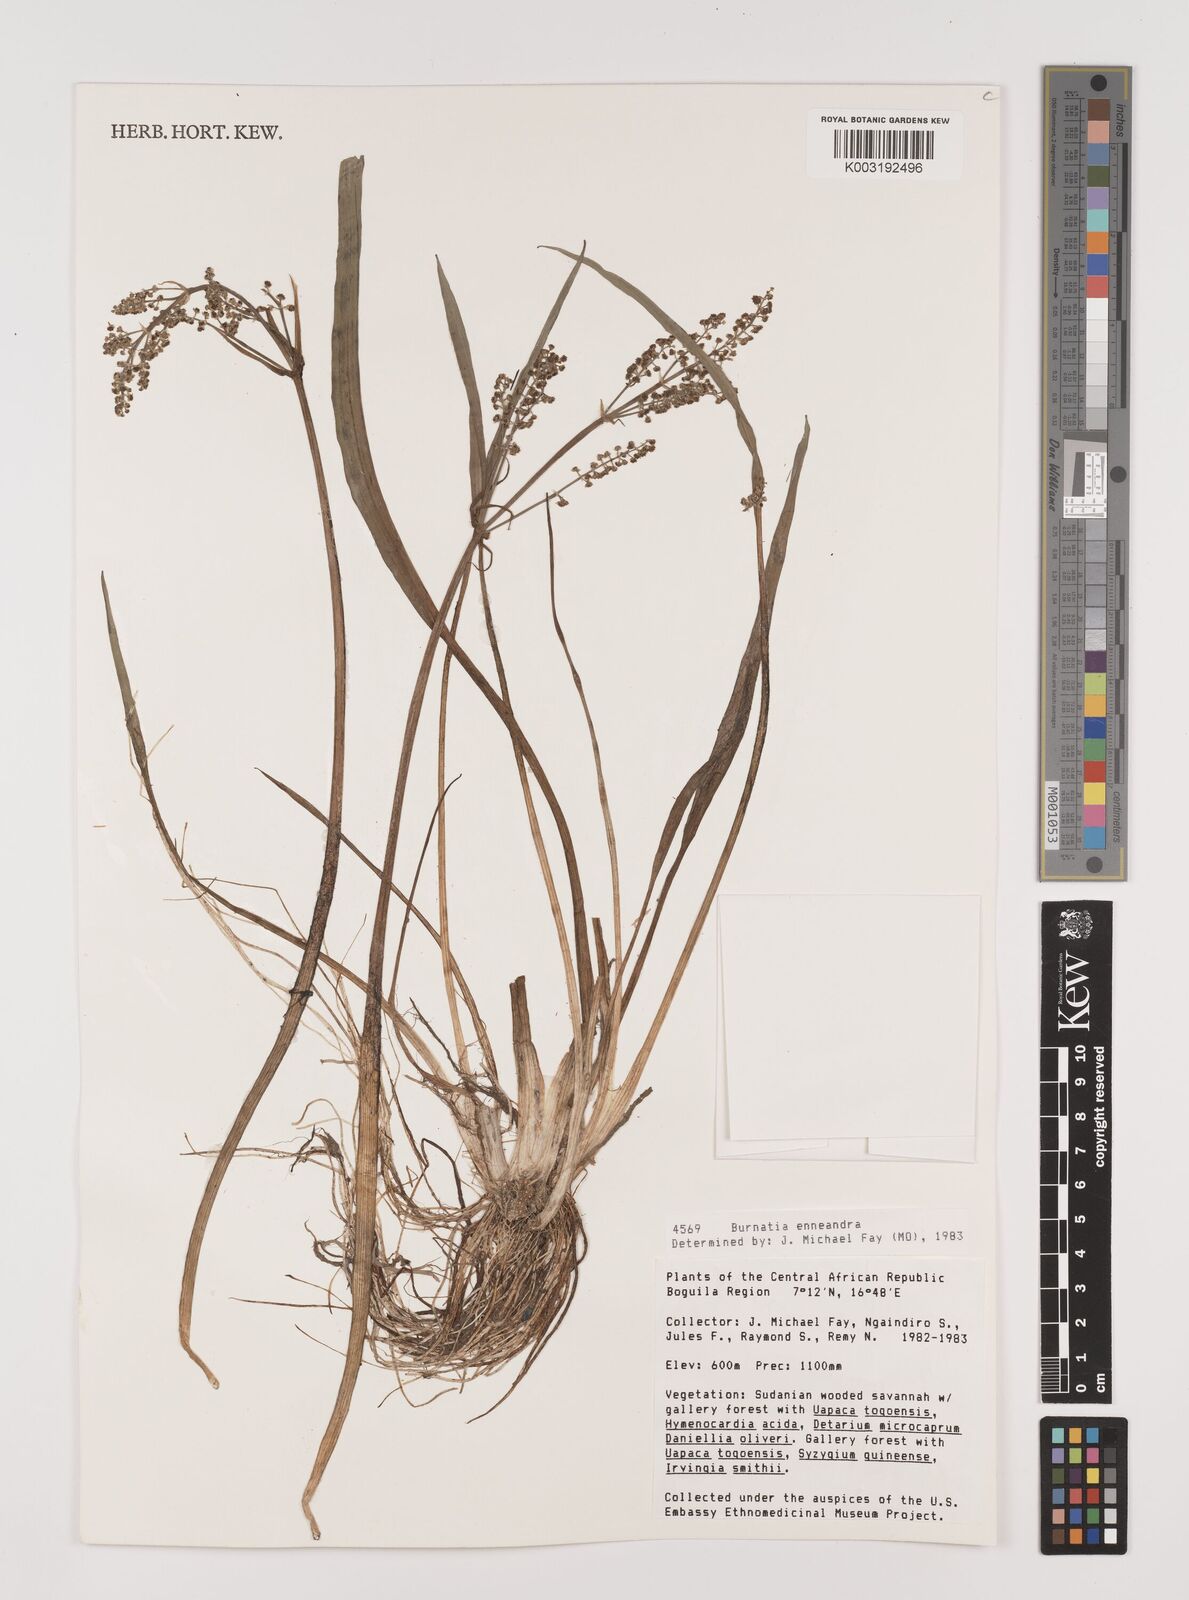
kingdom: Plantae
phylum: Tracheophyta
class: Liliopsida
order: Alismatales
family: Alismataceae
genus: Burnatia
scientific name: Burnatia enneandra
